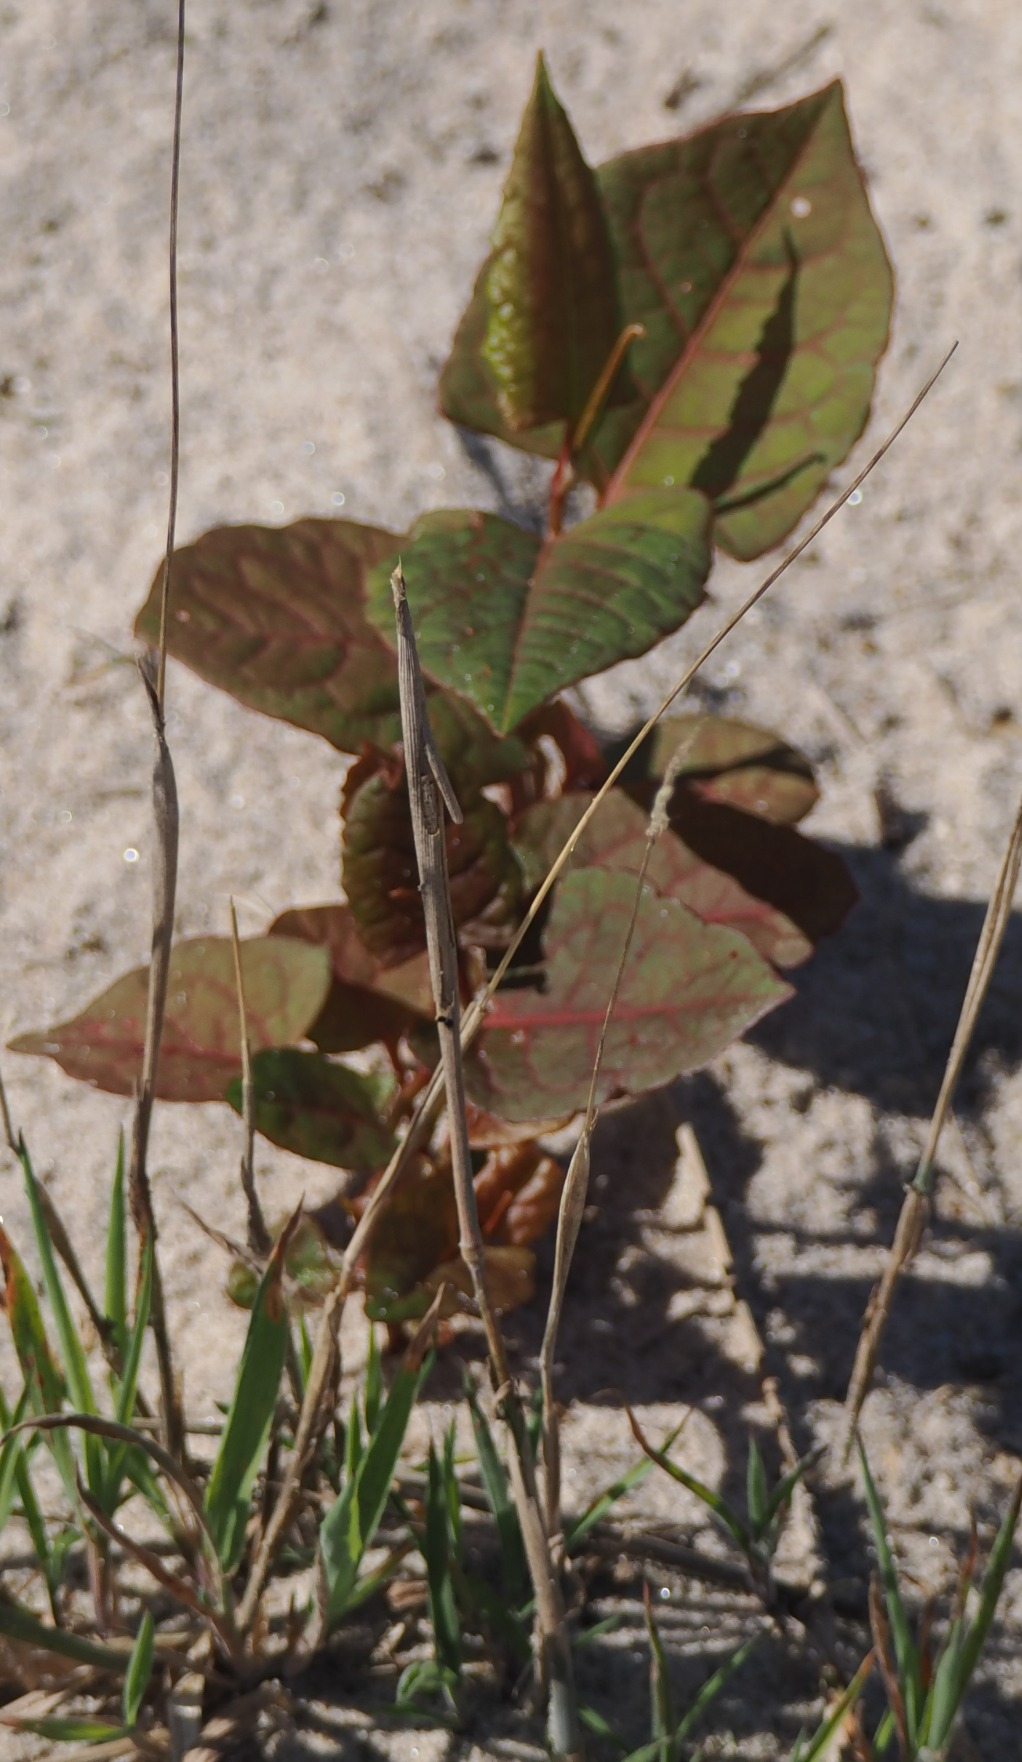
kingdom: Plantae
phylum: Tracheophyta
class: Magnoliopsida
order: Caryophyllales
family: Polygonaceae
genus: Reynoutria
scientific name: Reynoutria japonica
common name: Japan-pileurt
